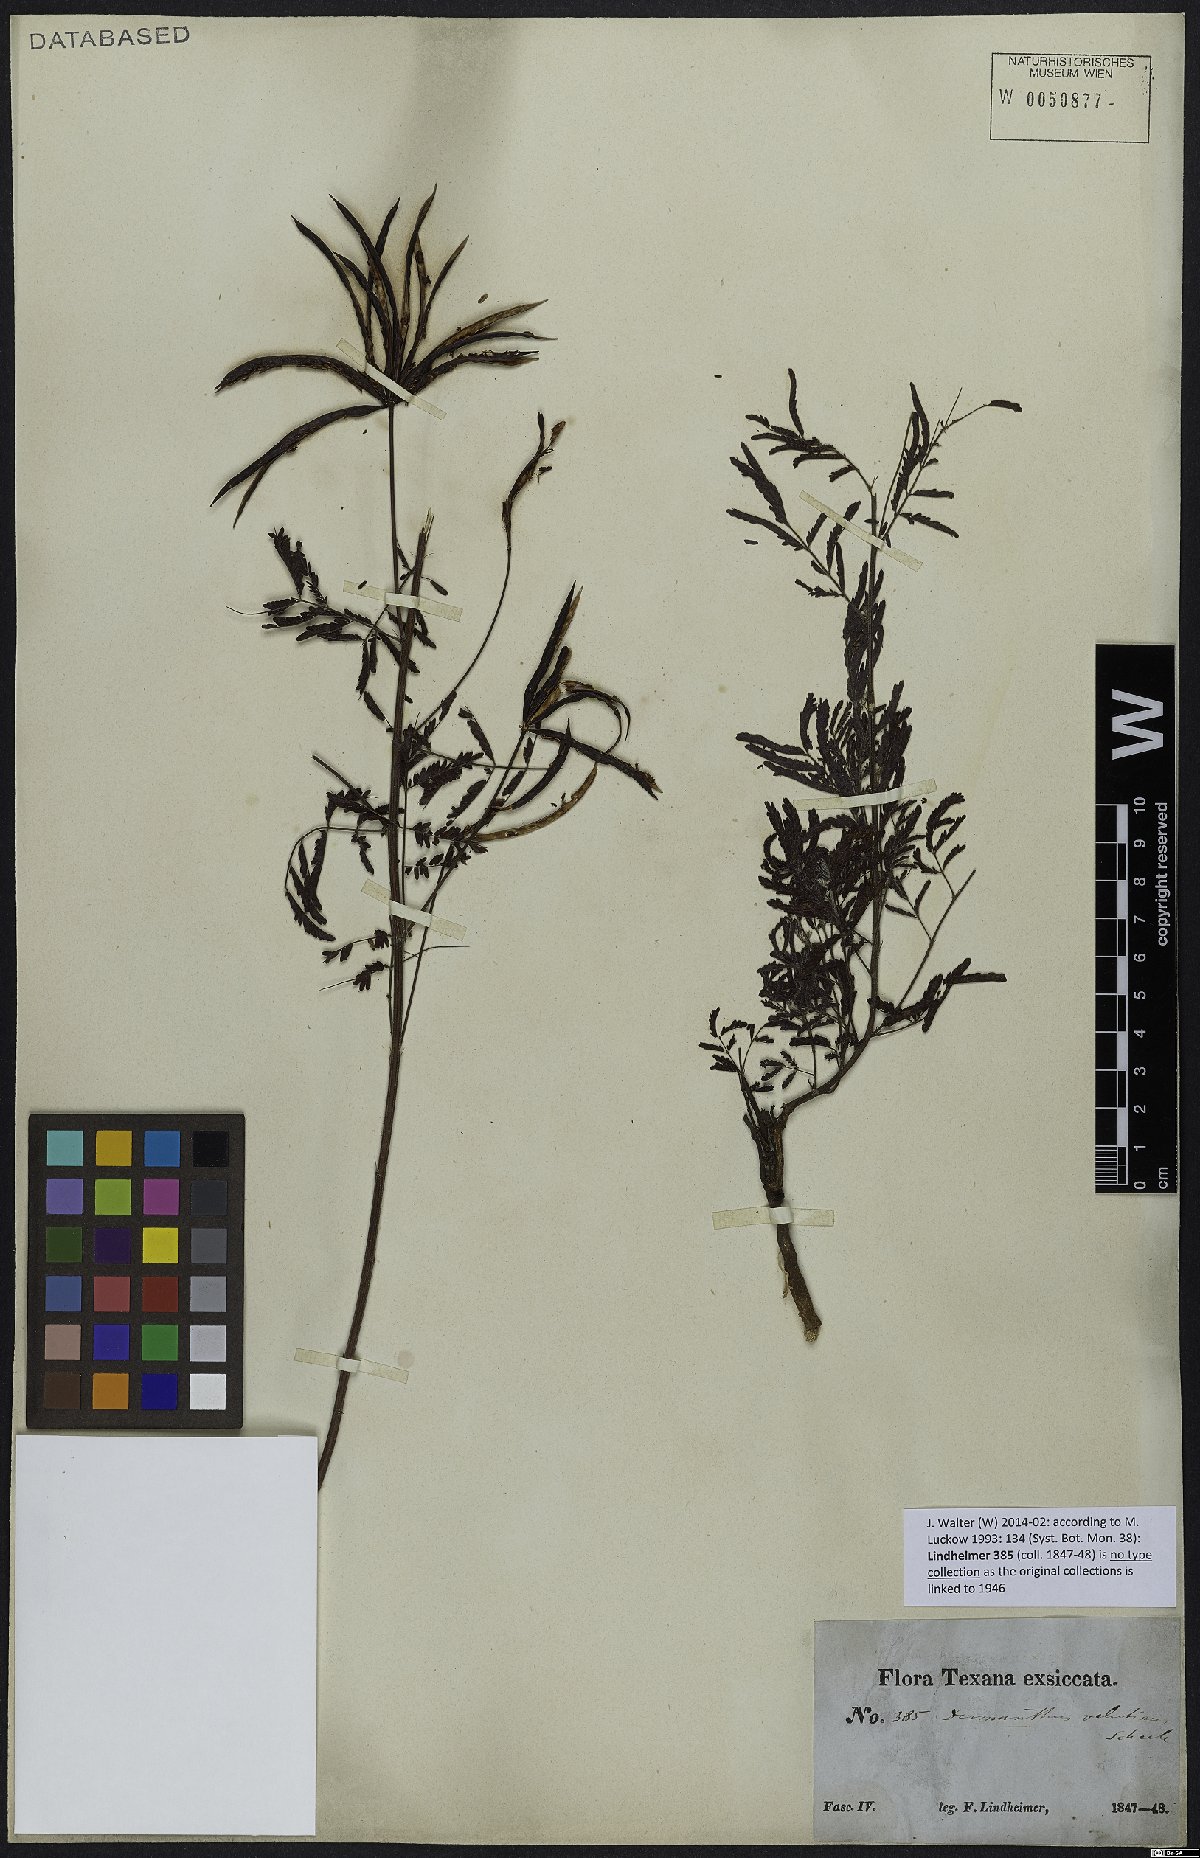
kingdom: Plantae
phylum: Tracheophyta
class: Magnoliopsida
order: Fabales
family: Fabaceae
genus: Desmanthus
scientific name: Desmanthus velutinus
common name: Velvet bundle-flower
